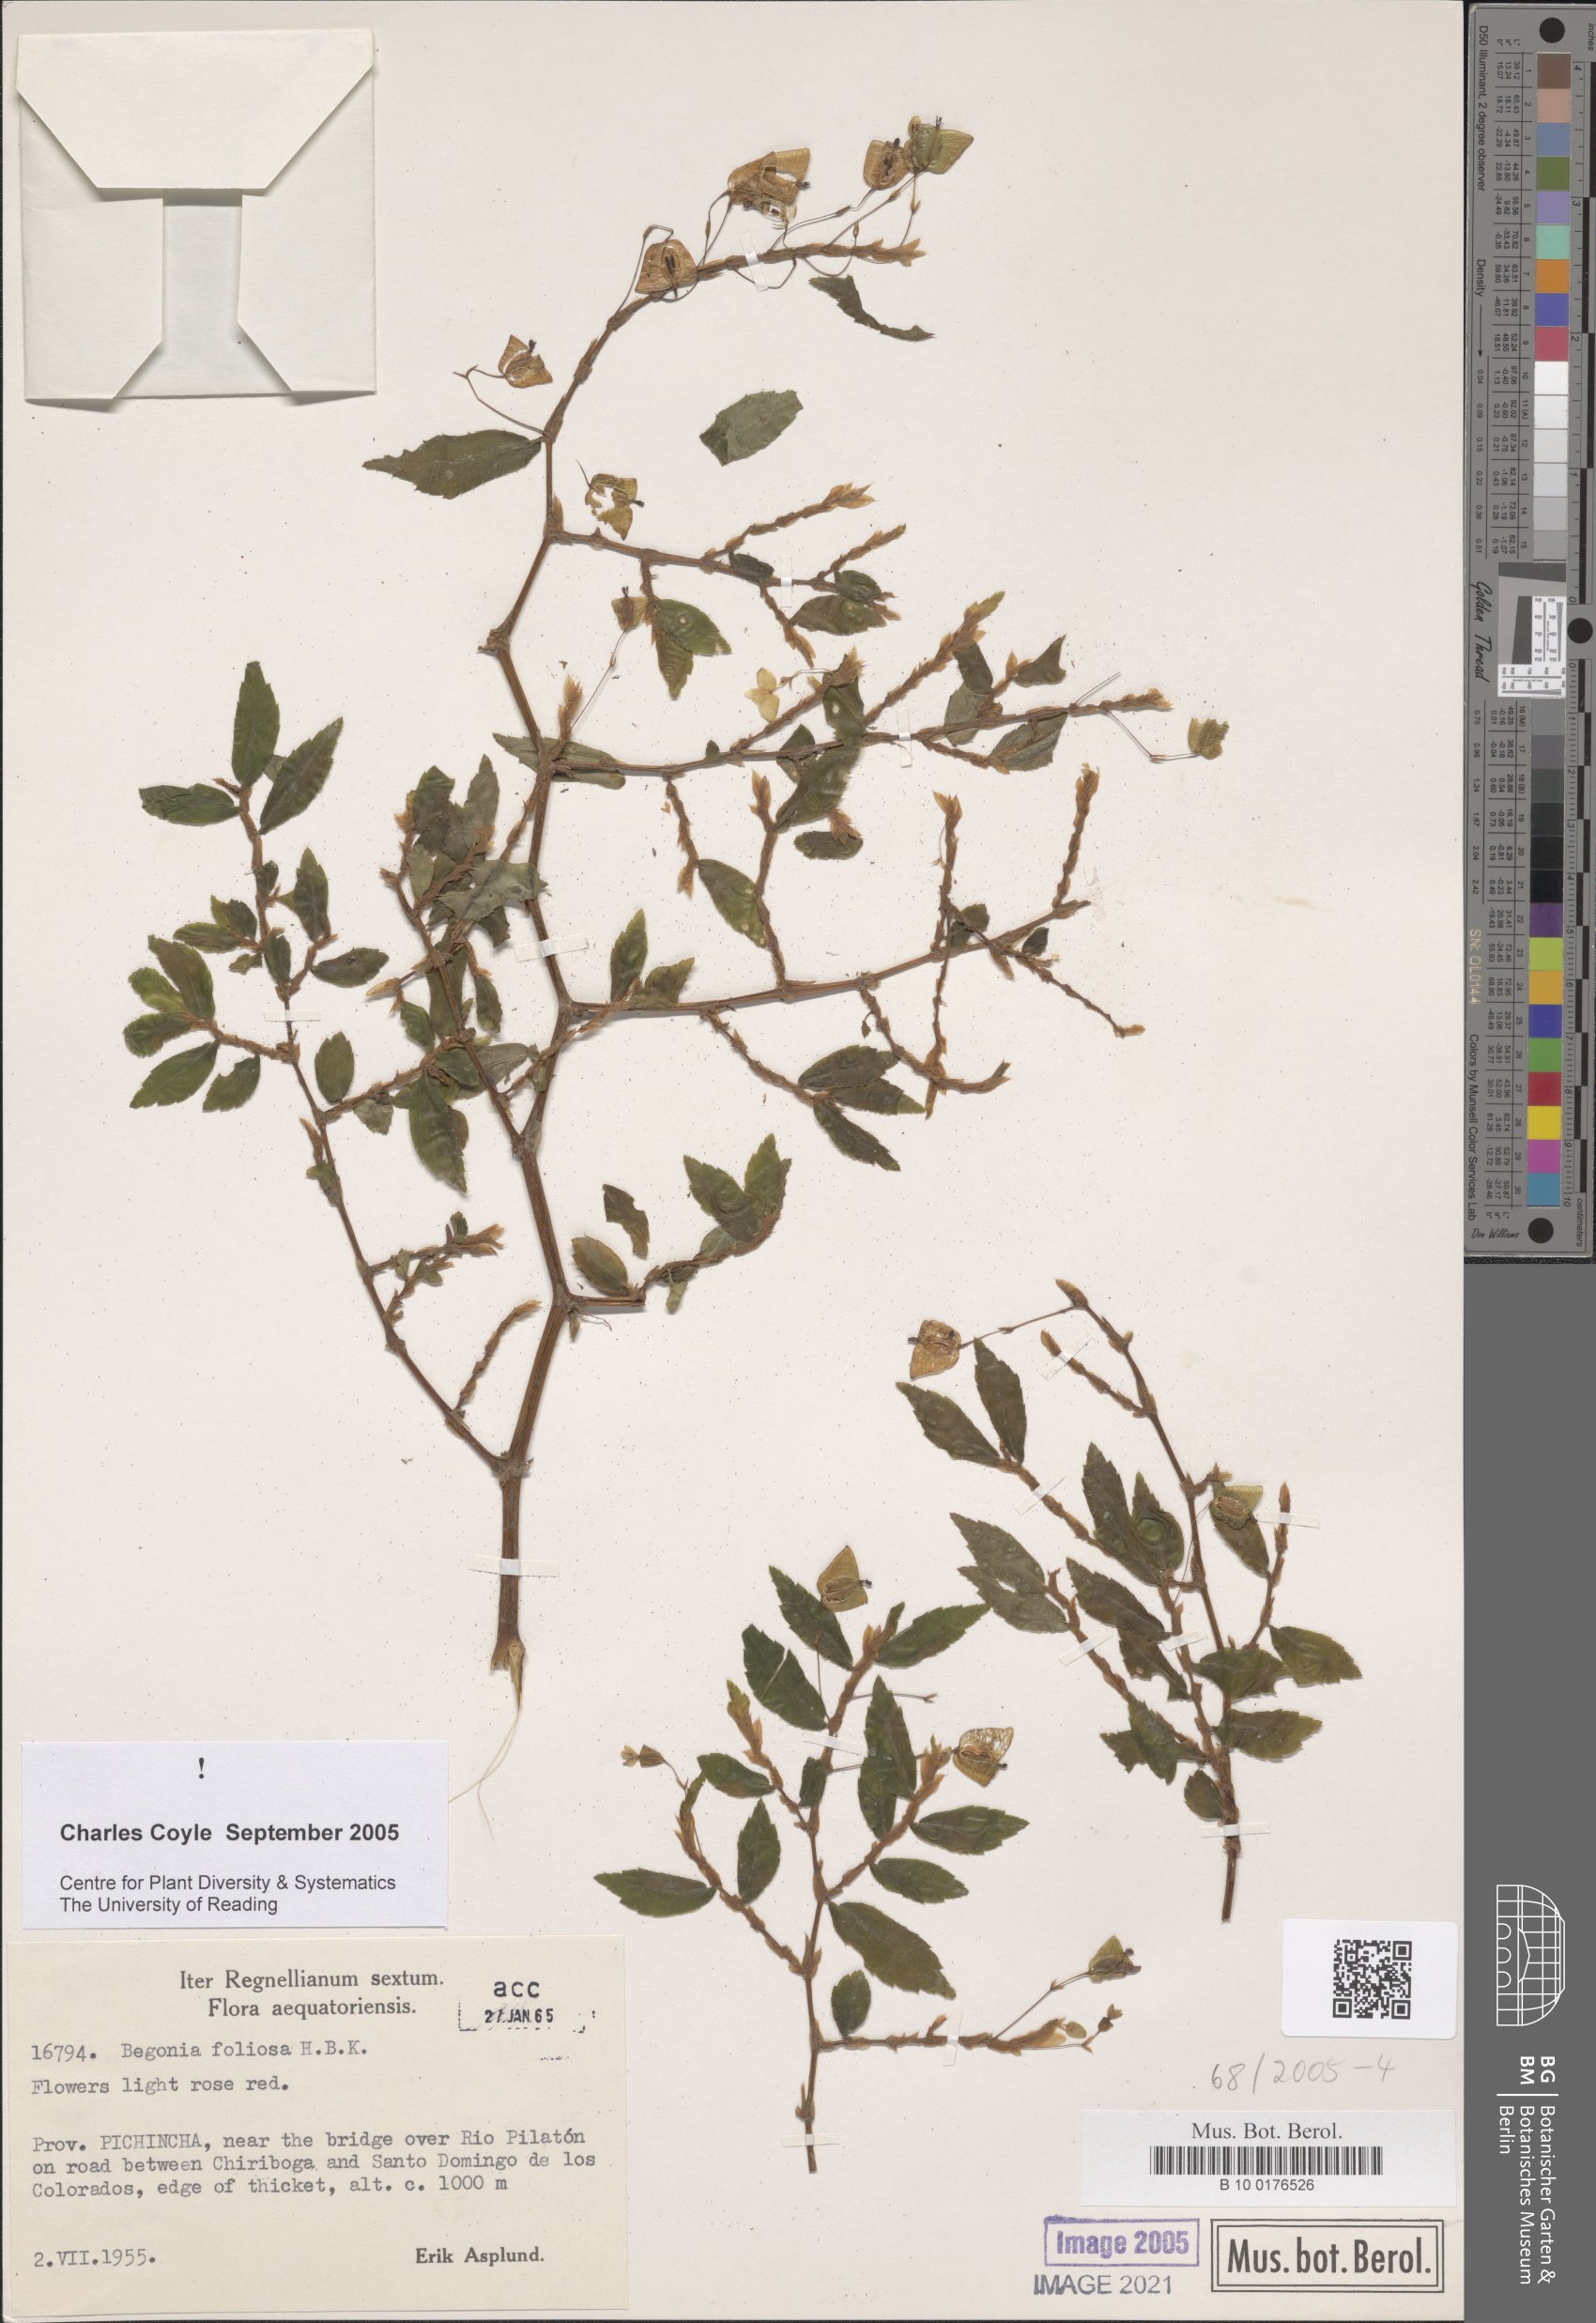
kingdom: Plantae
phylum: Tracheophyta
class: Magnoliopsida
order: Cucurbitales
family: Begoniaceae
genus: Begonia
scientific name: Begonia foliosa
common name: Fern begonia
